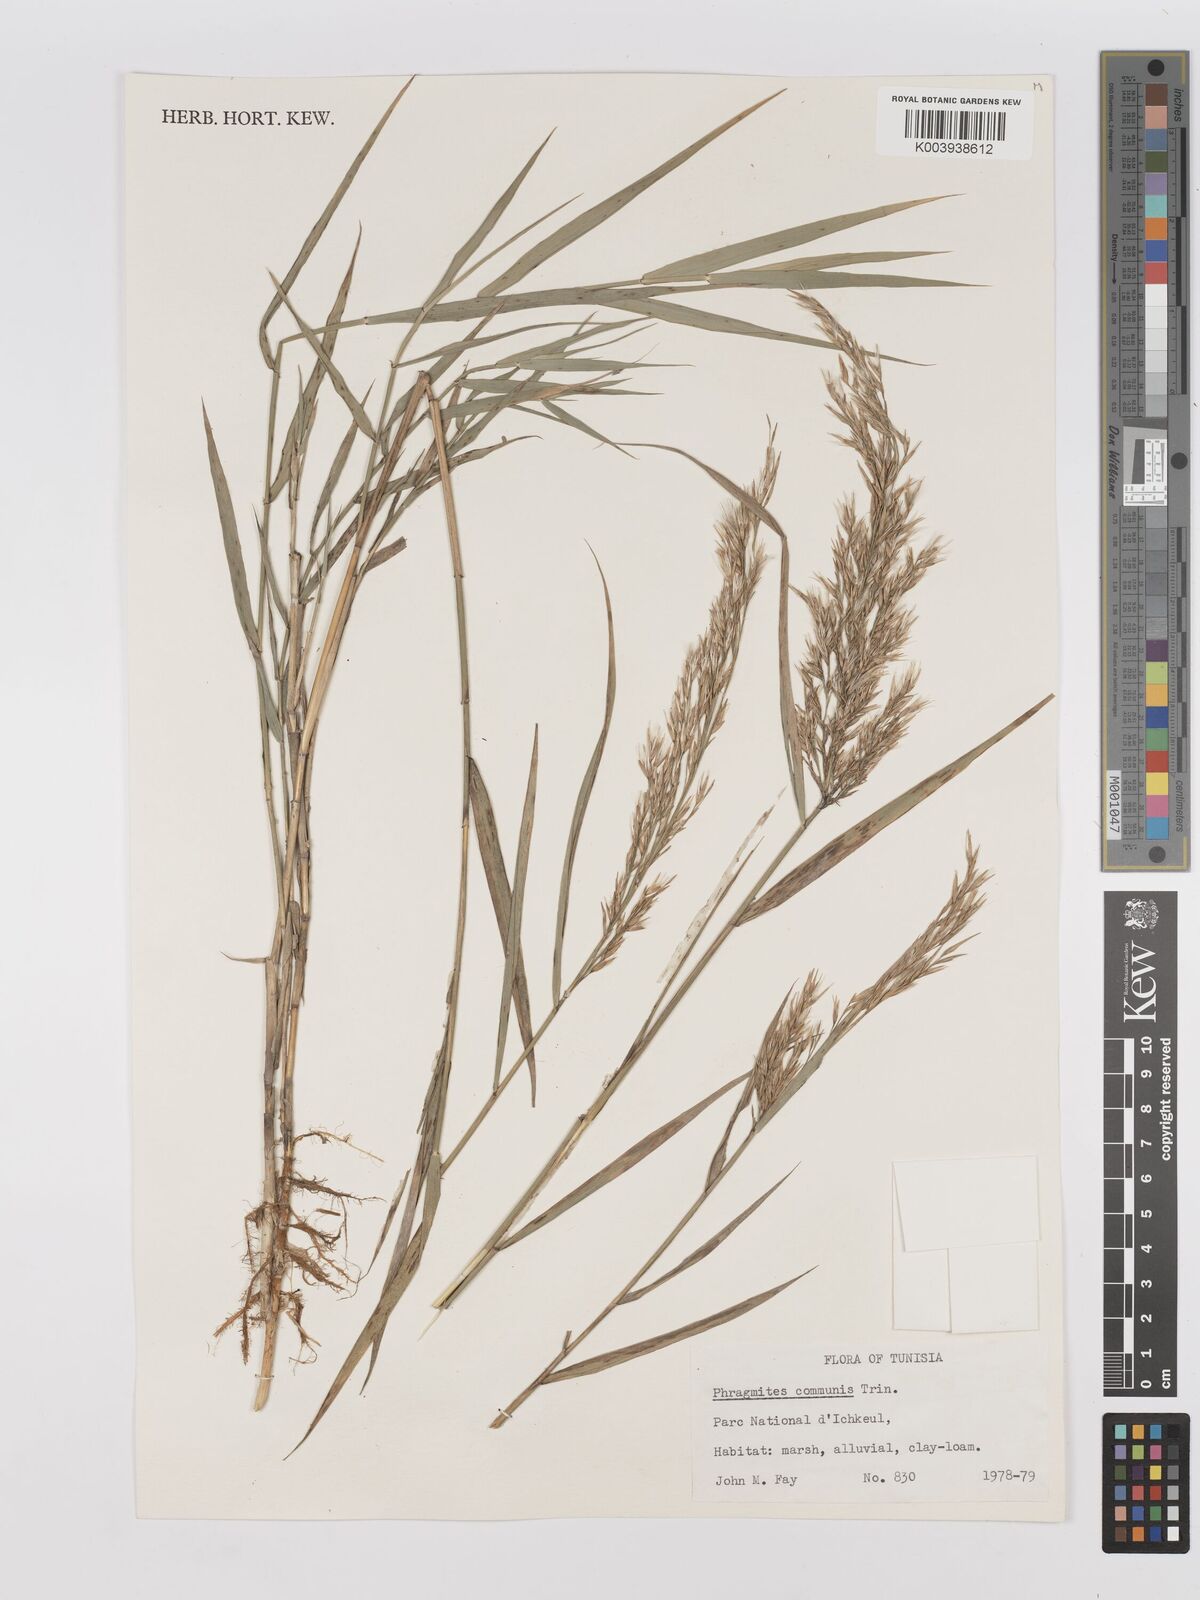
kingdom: Plantae
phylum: Tracheophyta
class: Liliopsida
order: Poales
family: Poaceae
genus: Phragmites
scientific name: Phragmites australis
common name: Common reed
